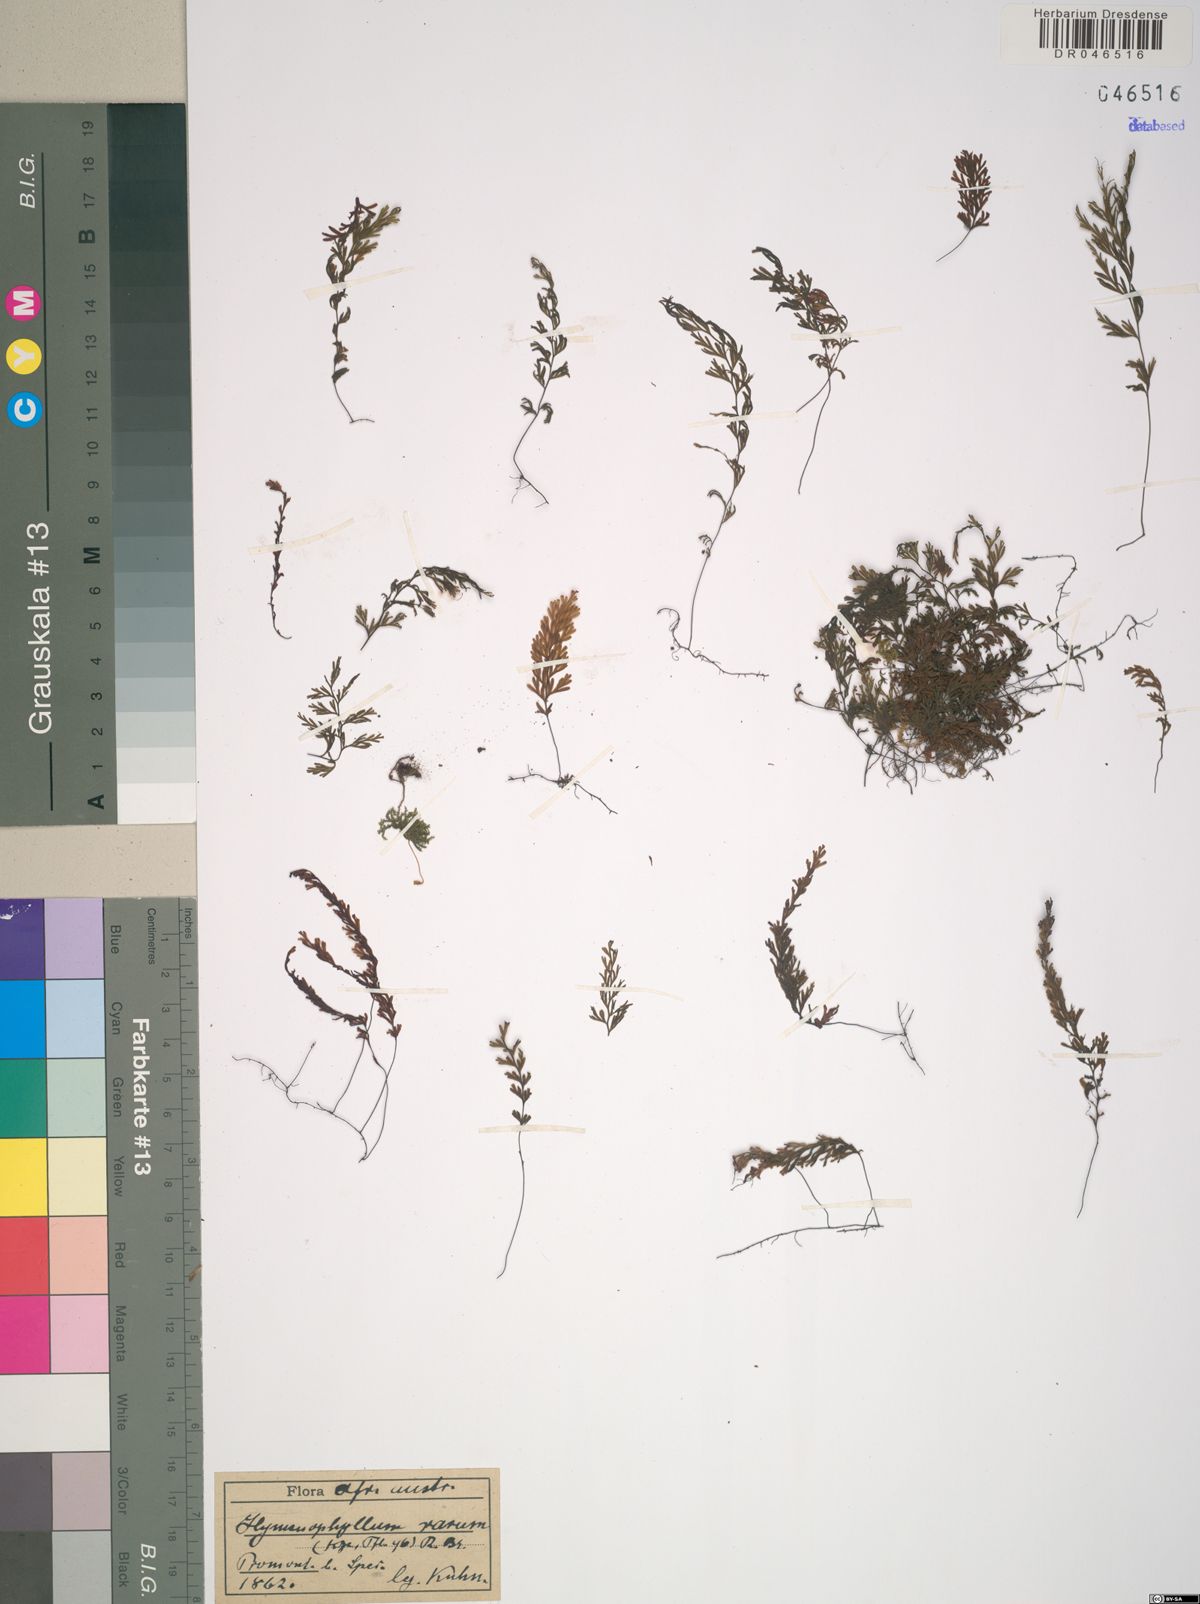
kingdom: Plantae
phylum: Tracheophyta
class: Polypodiopsida
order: Hymenophyllales
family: Hymenophyllaceae
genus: Hymenophyllum
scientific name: Hymenophyllum rarum
